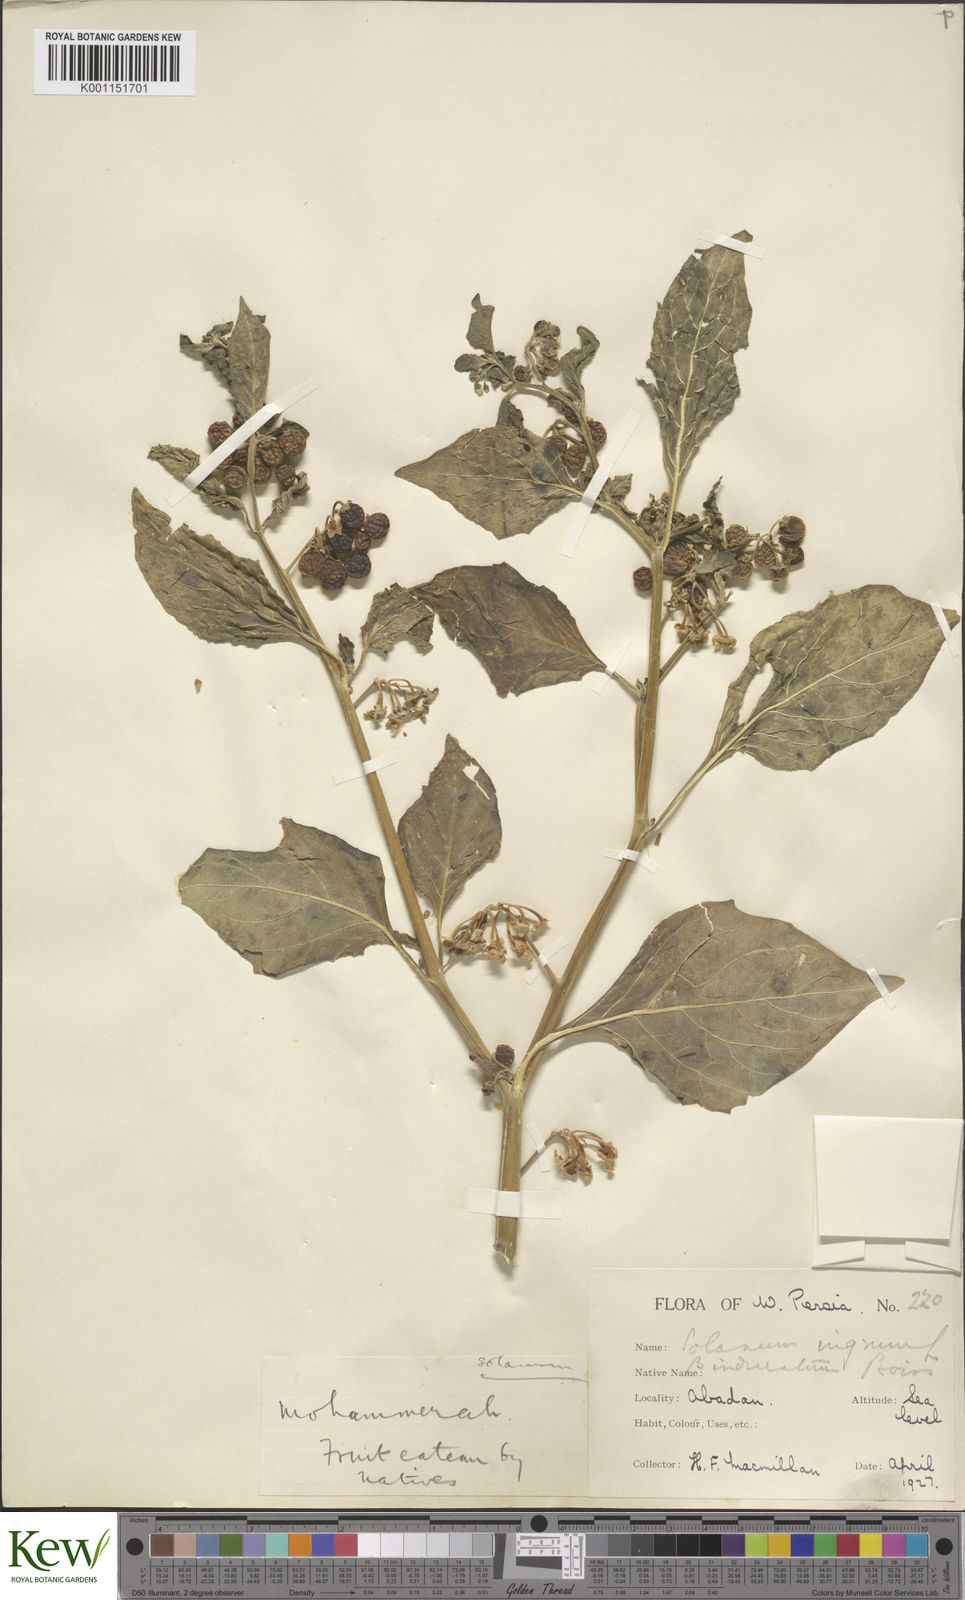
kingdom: Plantae
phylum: Tracheophyta
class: Magnoliopsida
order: Solanales
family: Solanaceae
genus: Solanum
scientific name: Solanum
